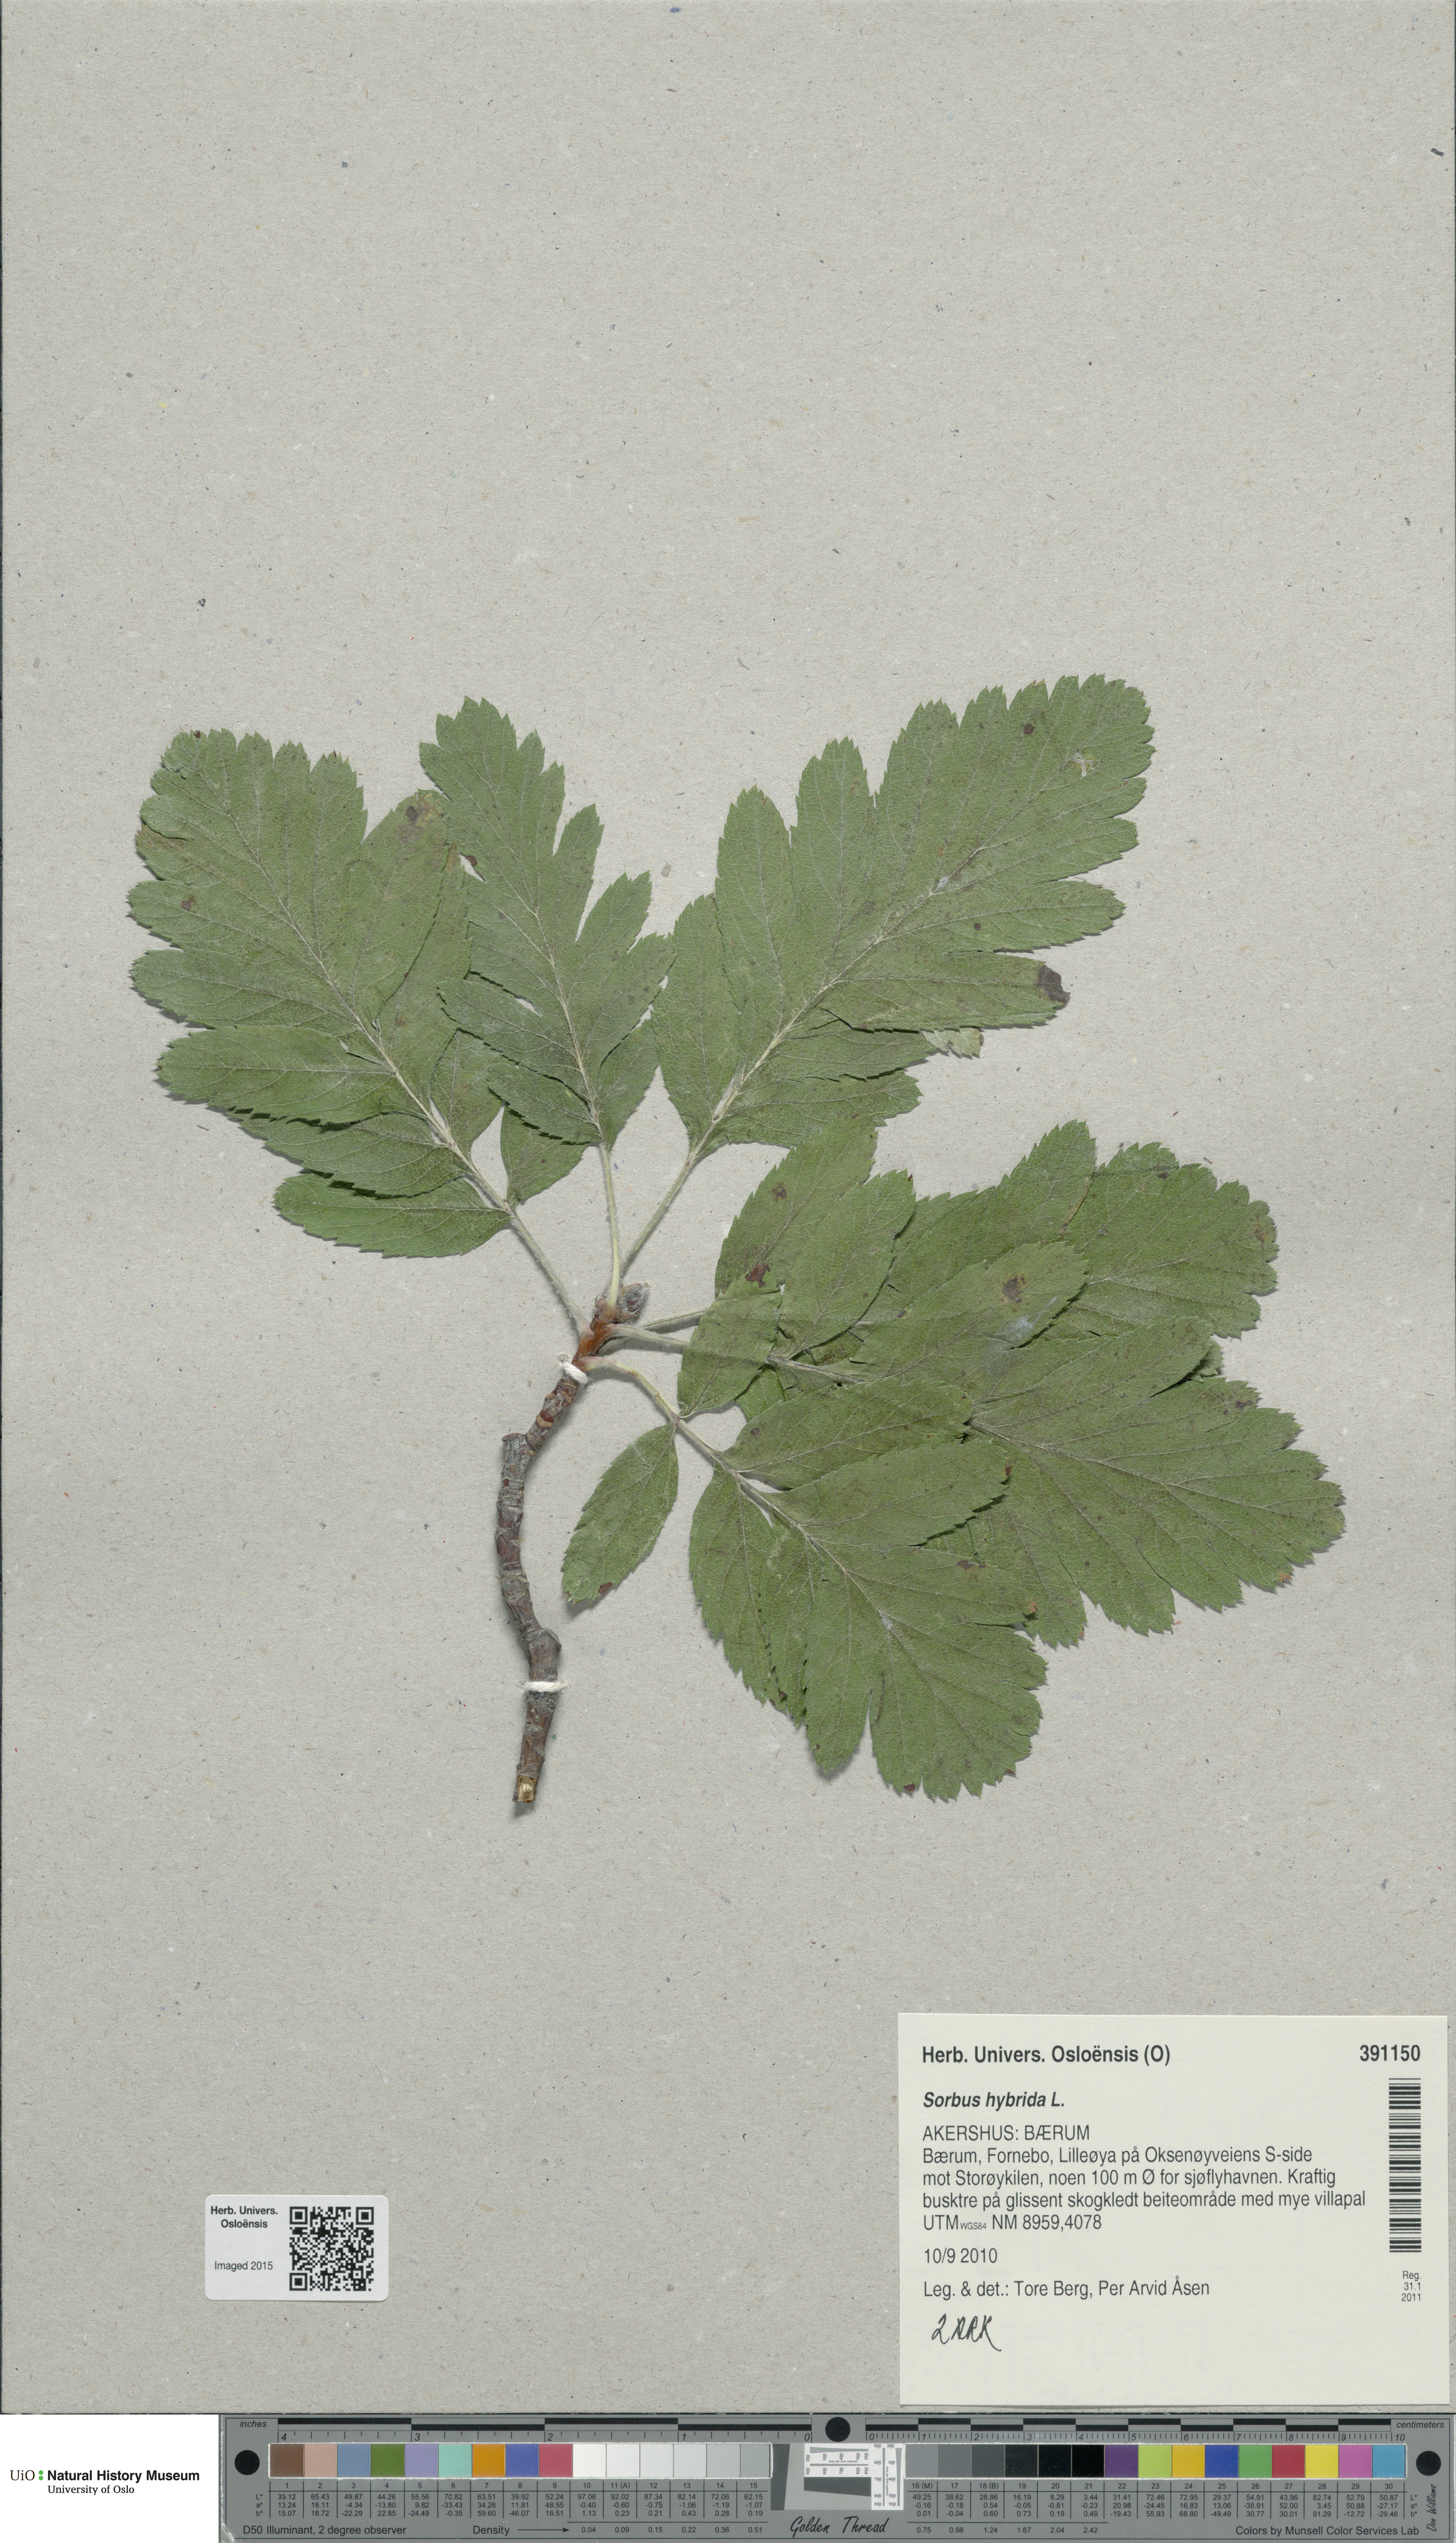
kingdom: Plantae
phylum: Tracheophyta
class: Magnoliopsida
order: Rosales
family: Rosaceae
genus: Hedlundia
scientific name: Hedlundia hybrida
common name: Swedish service-tree
